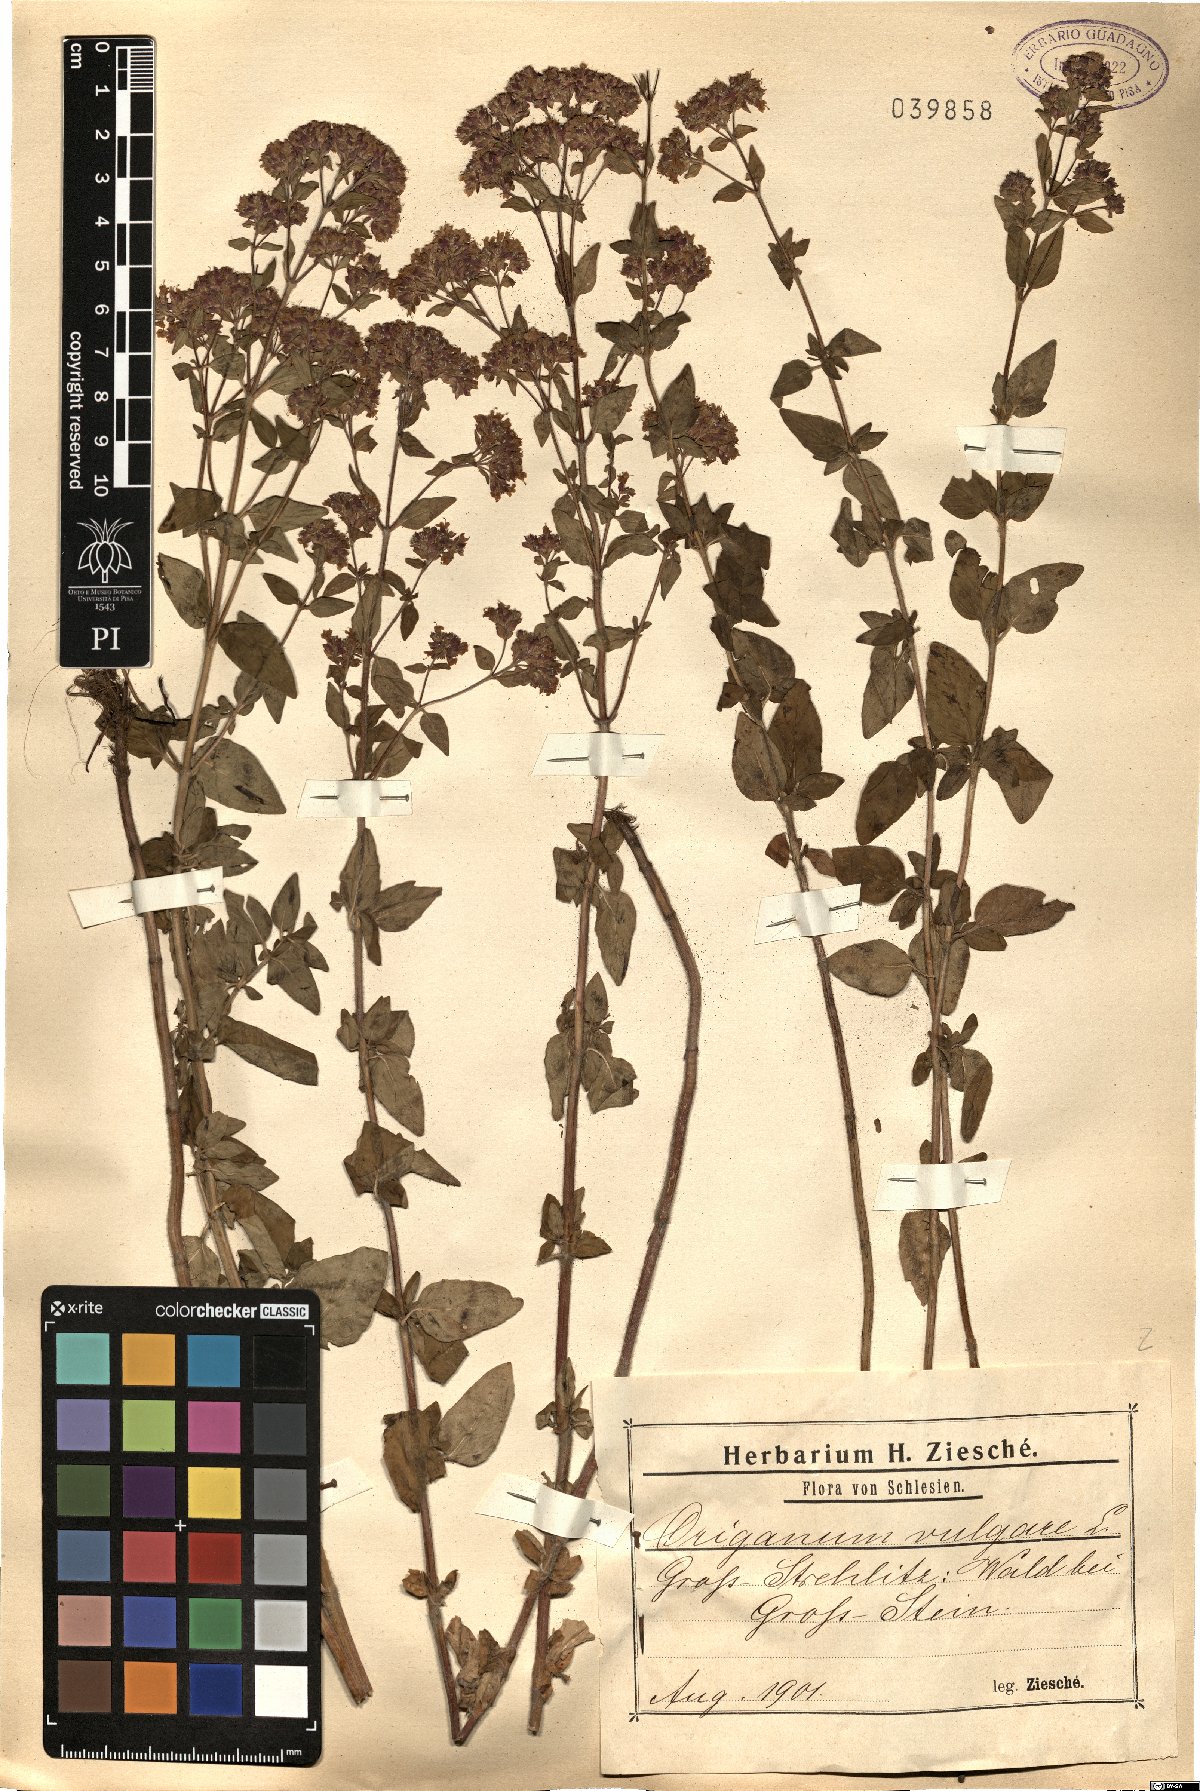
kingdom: Plantae
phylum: Tracheophyta
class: Magnoliopsida
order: Lamiales
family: Lamiaceae
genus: Origanum
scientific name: Origanum vulgare
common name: Wild marjoram
